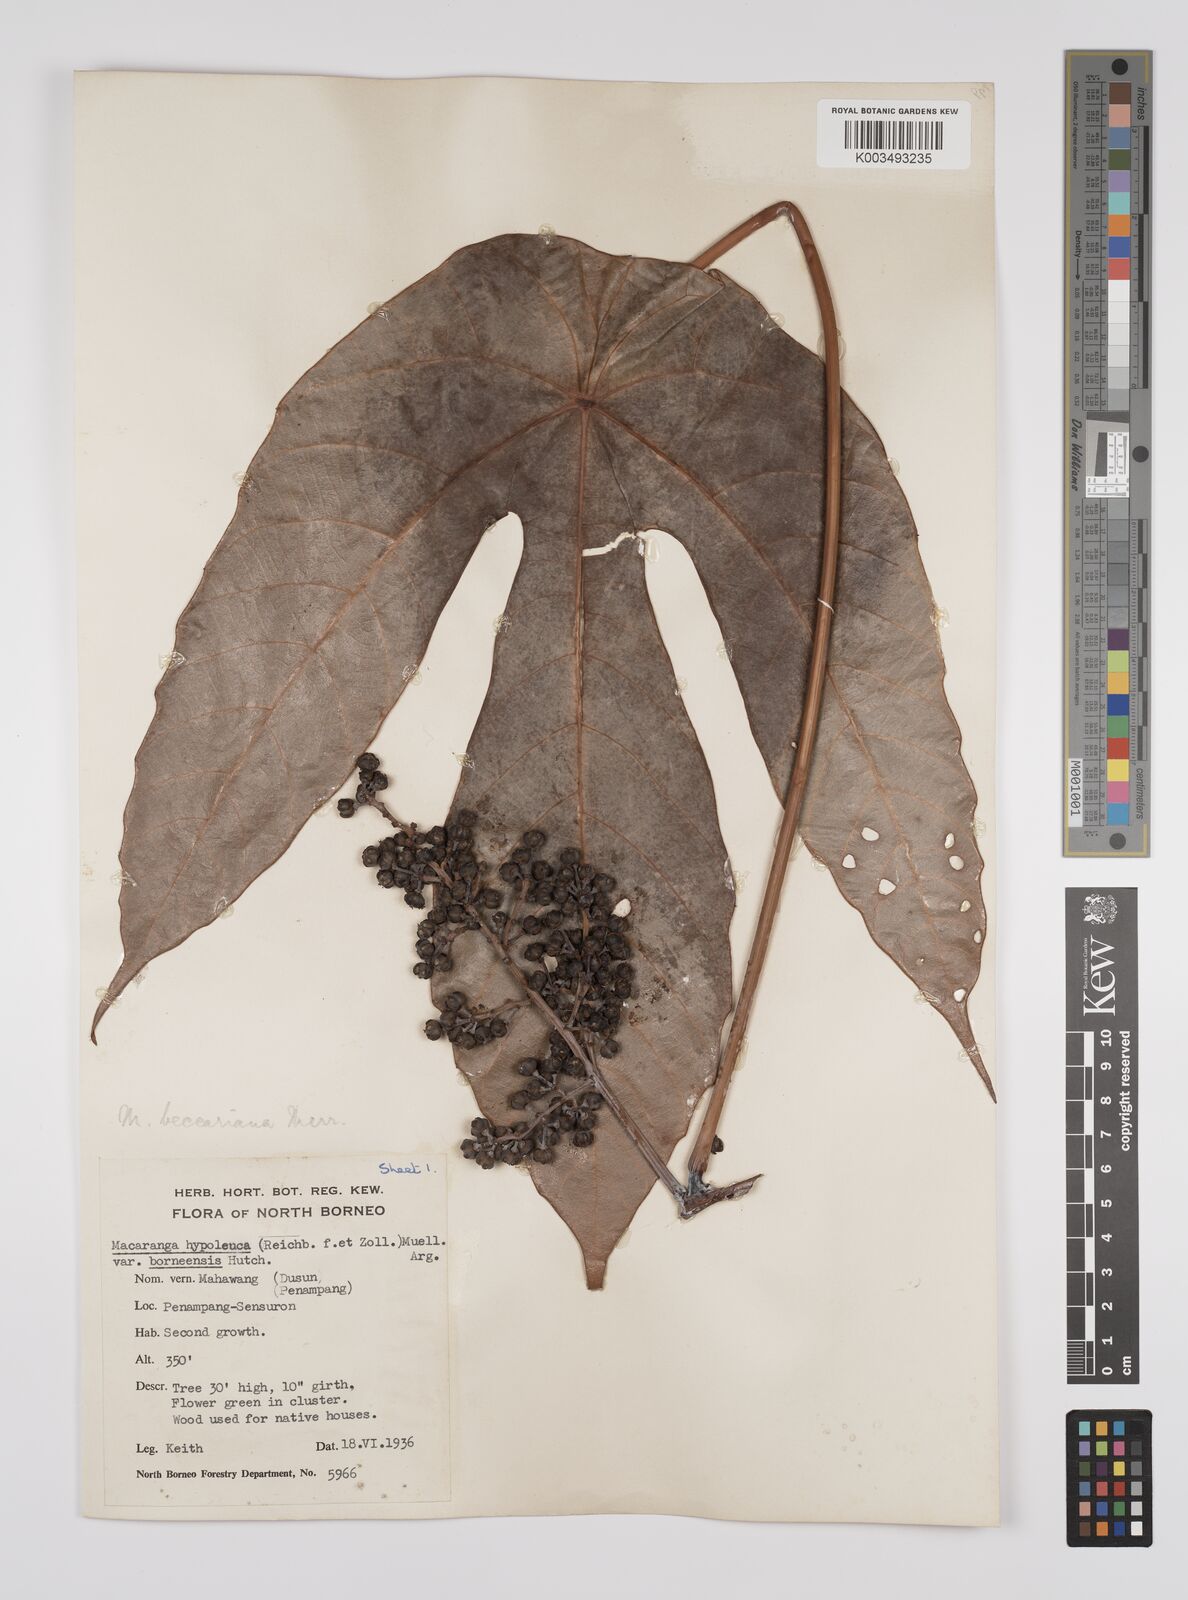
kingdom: Plantae
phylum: Tracheophyta
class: Magnoliopsida
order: Malpighiales
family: Euphorbiaceae
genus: Macaranga
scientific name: Macaranga beccariana
